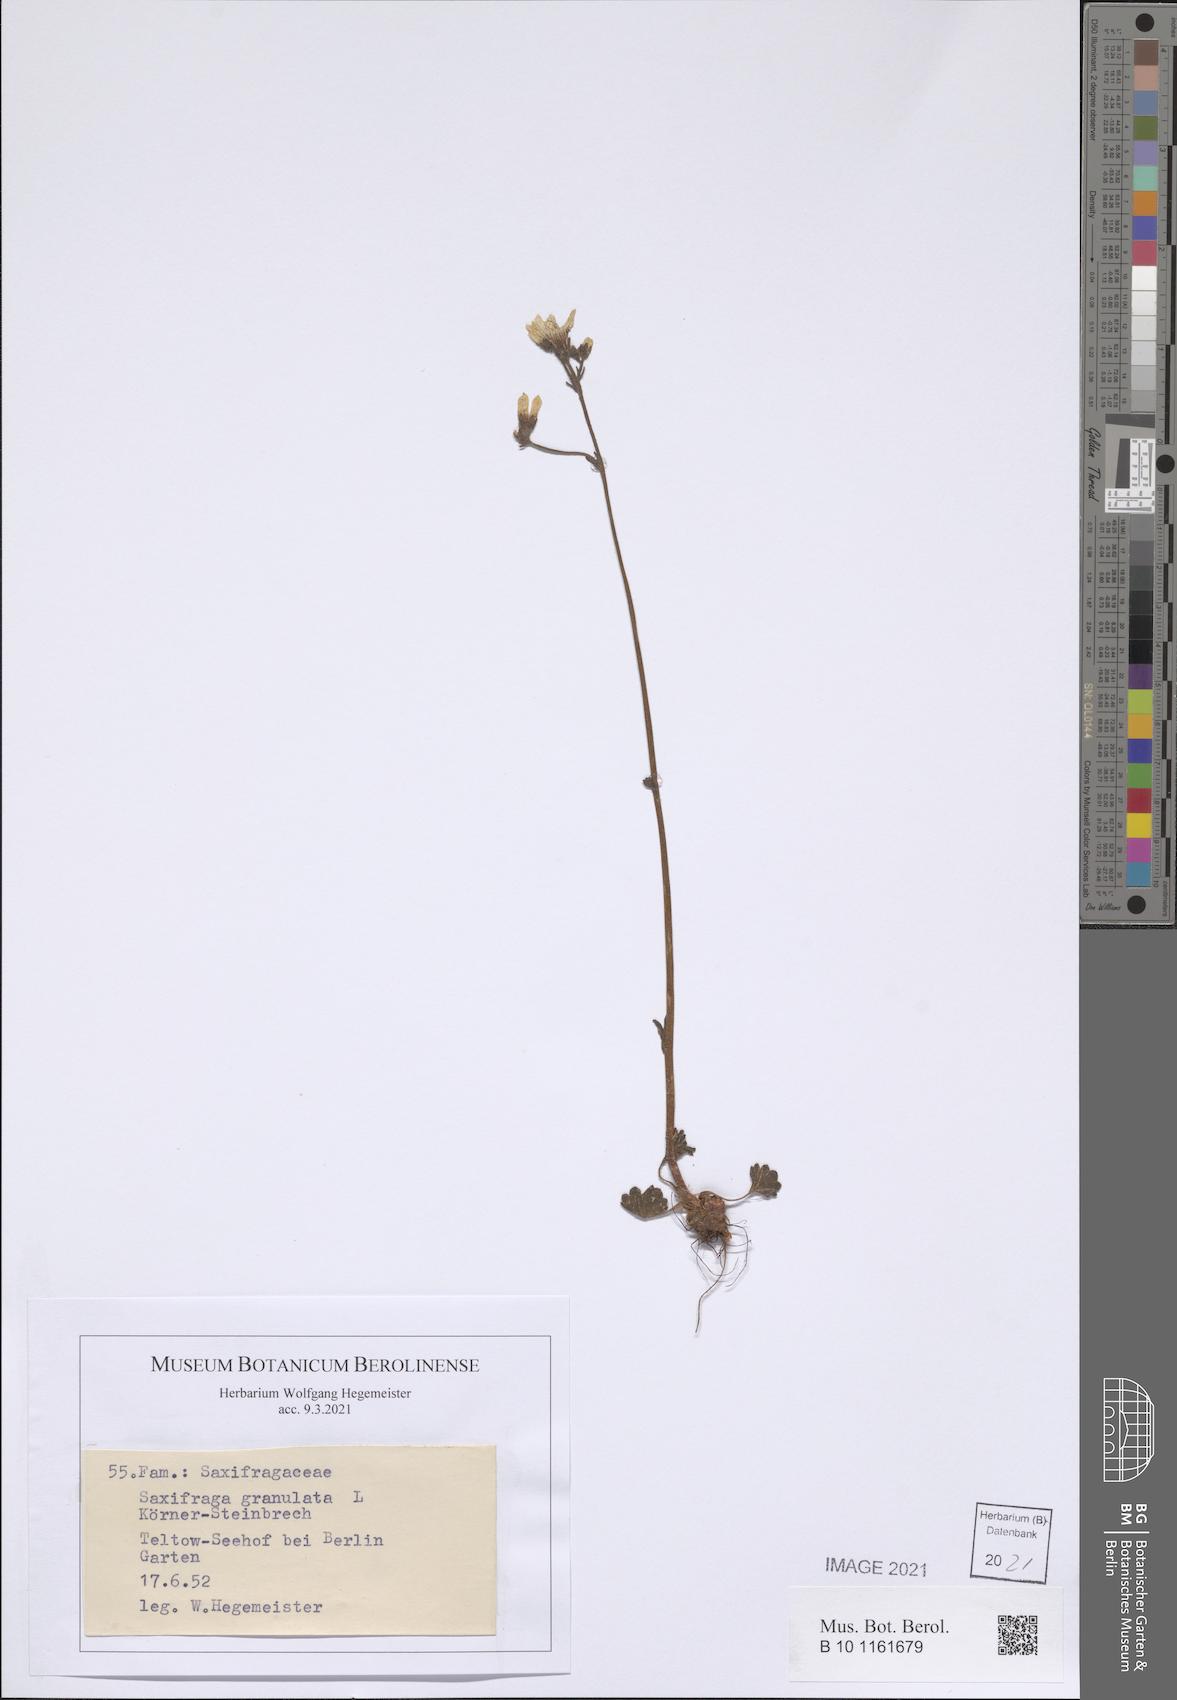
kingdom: Plantae
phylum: Tracheophyta
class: Magnoliopsida
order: Saxifragales
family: Saxifragaceae
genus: Saxifraga
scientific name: Saxifraga granulata
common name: Meadow saxifrage
